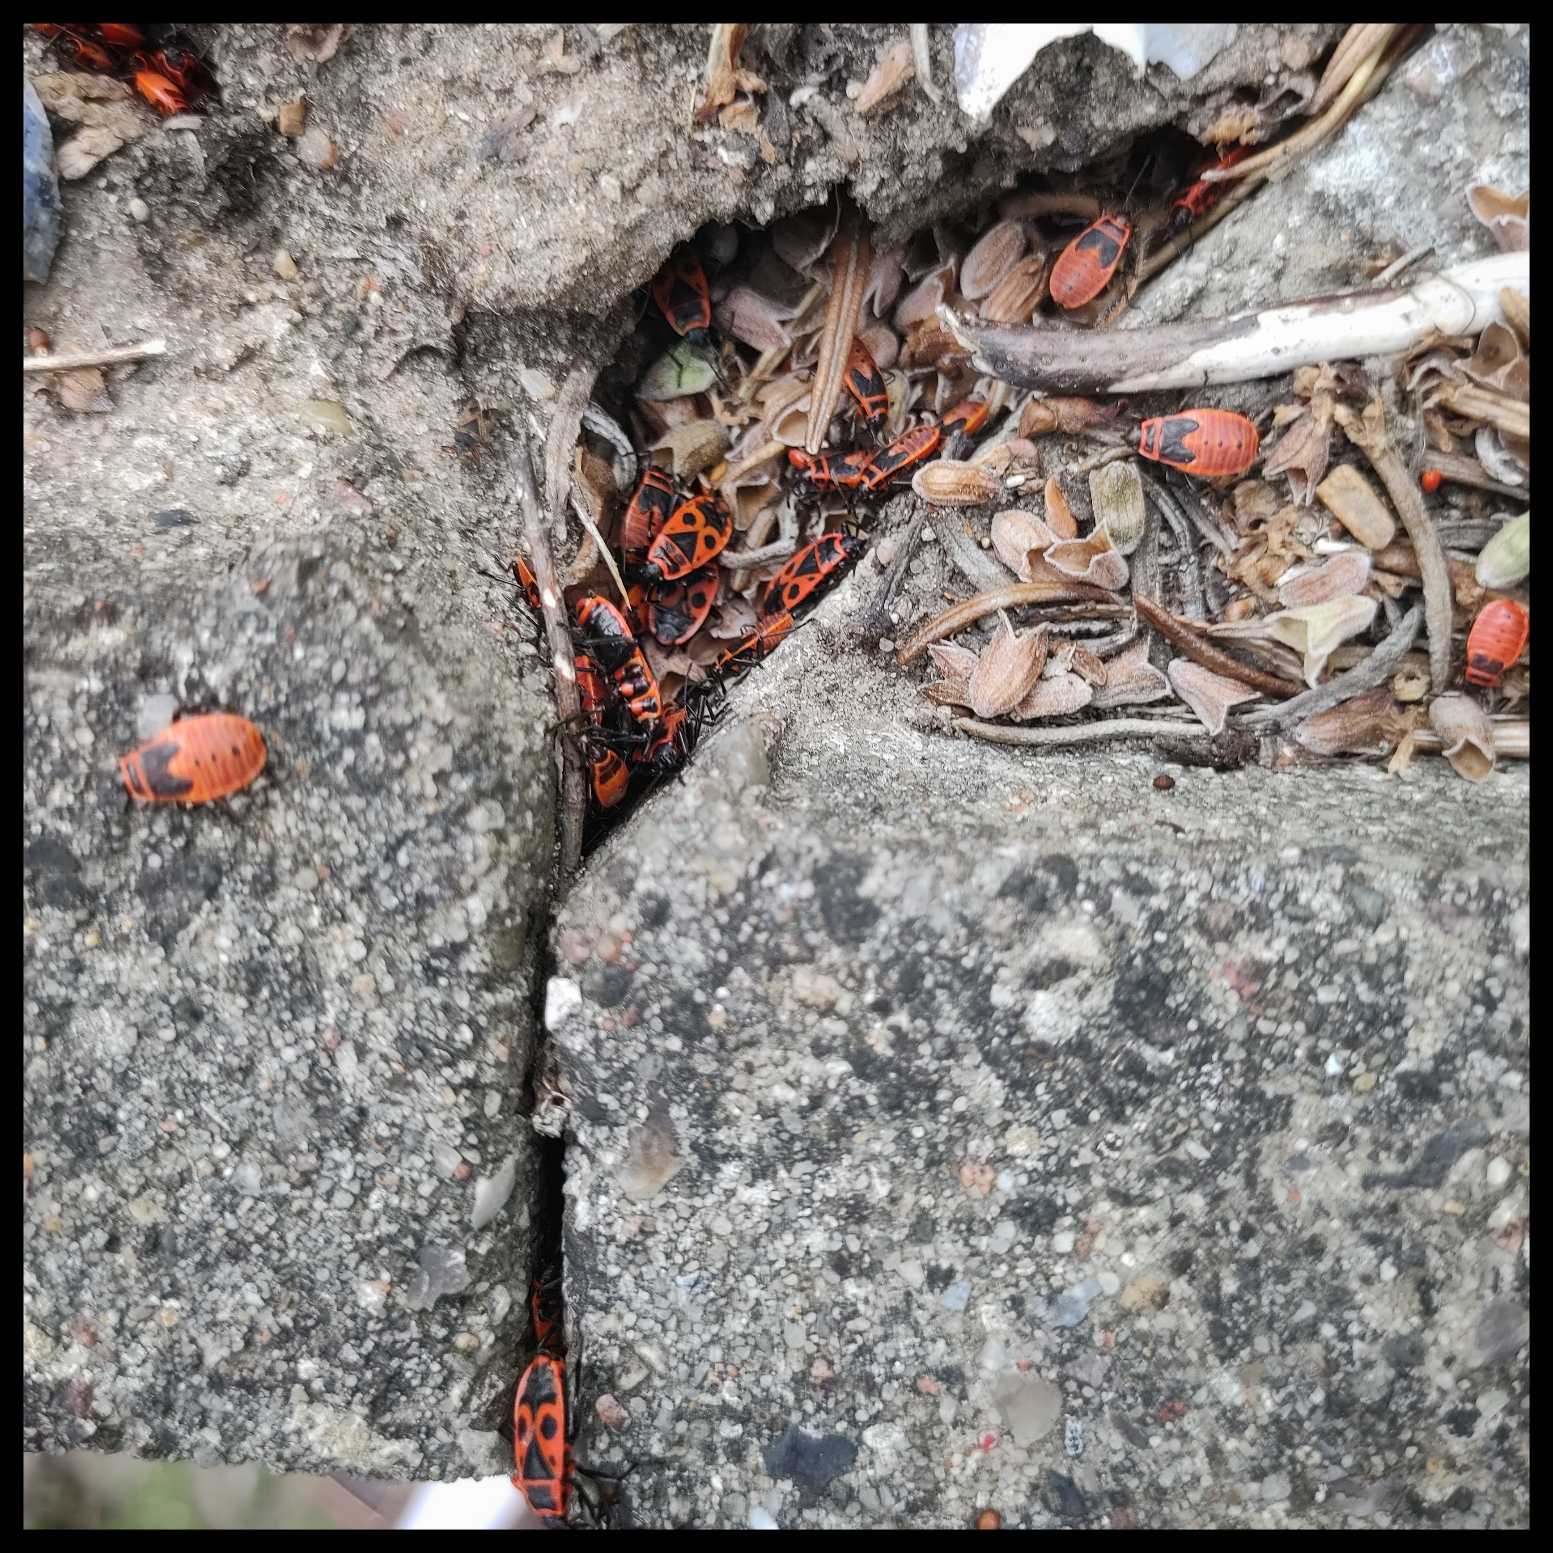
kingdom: Animalia
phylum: Arthropoda
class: Insecta
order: Hemiptera
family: Pyrrhocoridae
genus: Pyrrhocoris
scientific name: Pyrrhocoris apterus
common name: Ildtæge
